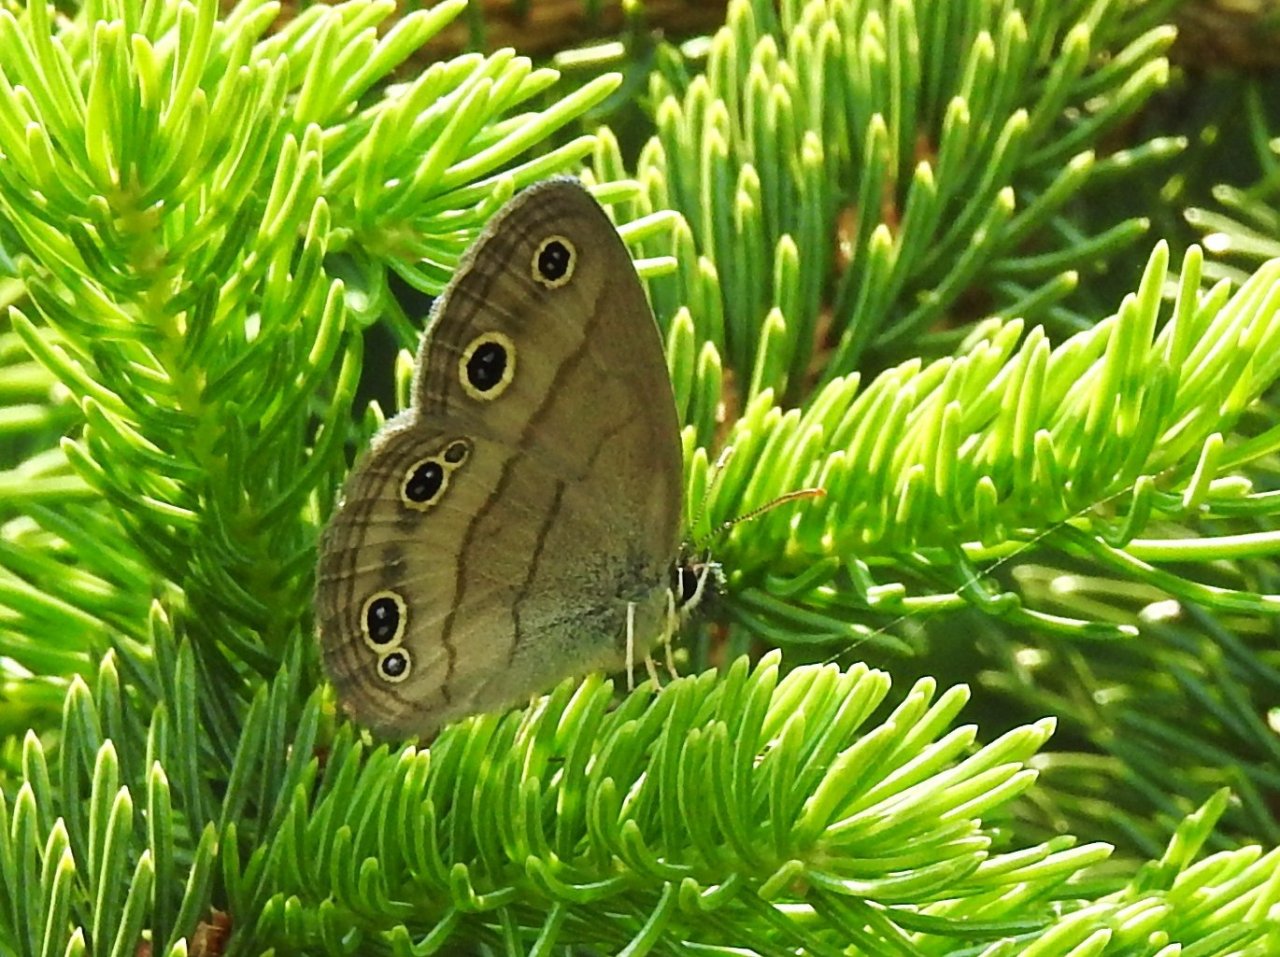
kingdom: Animalia
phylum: Arthropoda
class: Insecta
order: Lepidoptera
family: Nymphalidae
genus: Euptychia
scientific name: Euptychia cymela
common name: Little Wood Satyr
